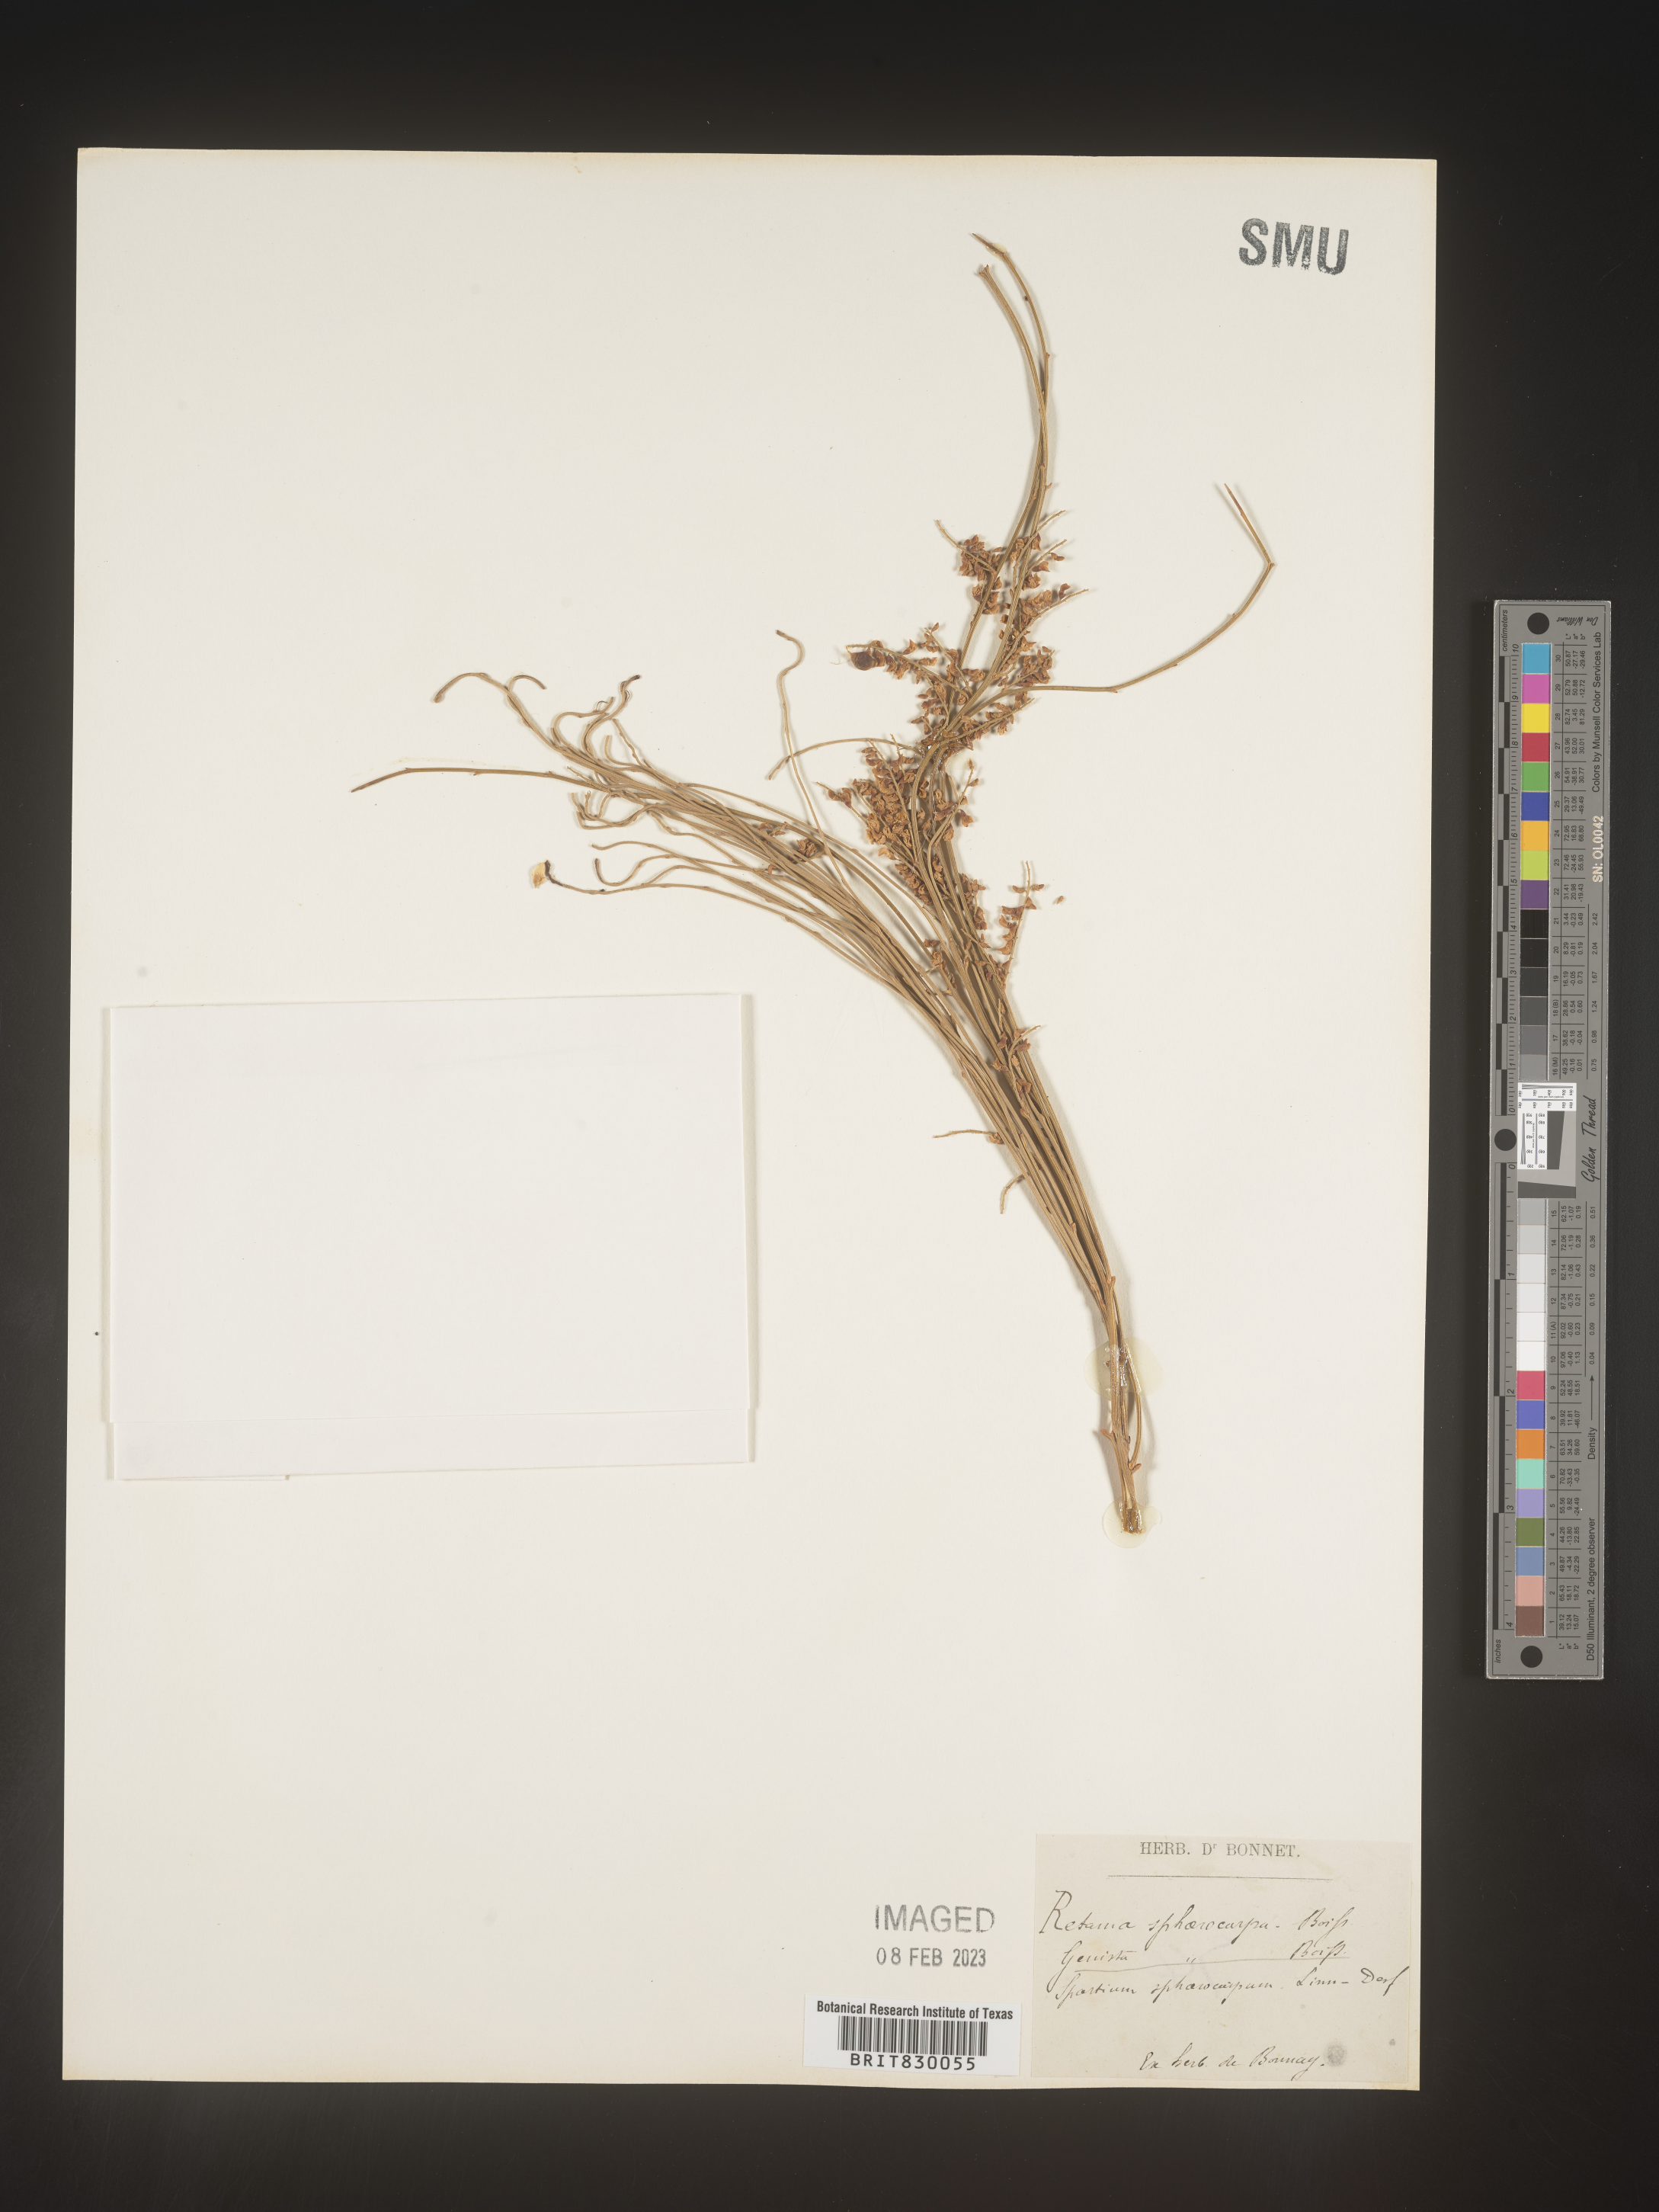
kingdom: Plantae
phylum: Tracheophyta
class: Magnoliopsida
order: Fabales
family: Fabaceae
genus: Retama
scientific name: Retama
